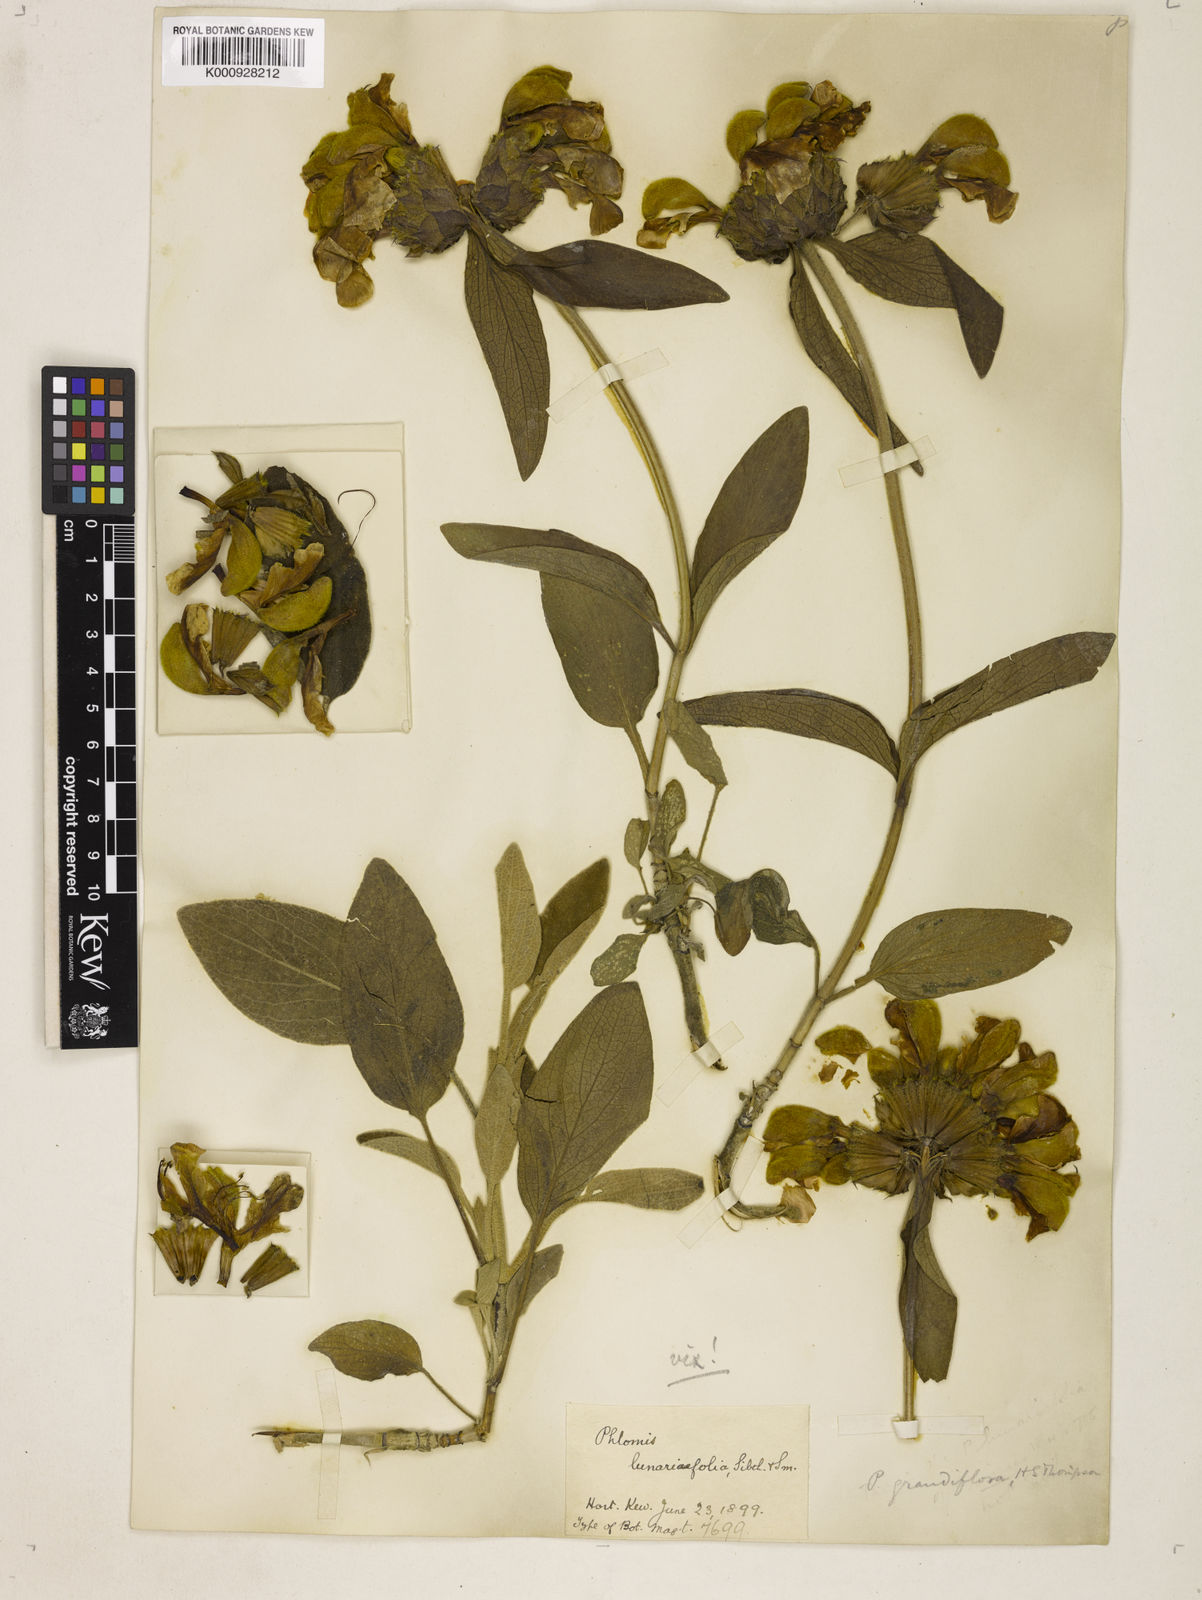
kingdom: Plantae
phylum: Tracheophyta
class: Magnoliopsida
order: Lamiales
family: Lamiaceae
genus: Phlomis
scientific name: Phlomis grandiflora
